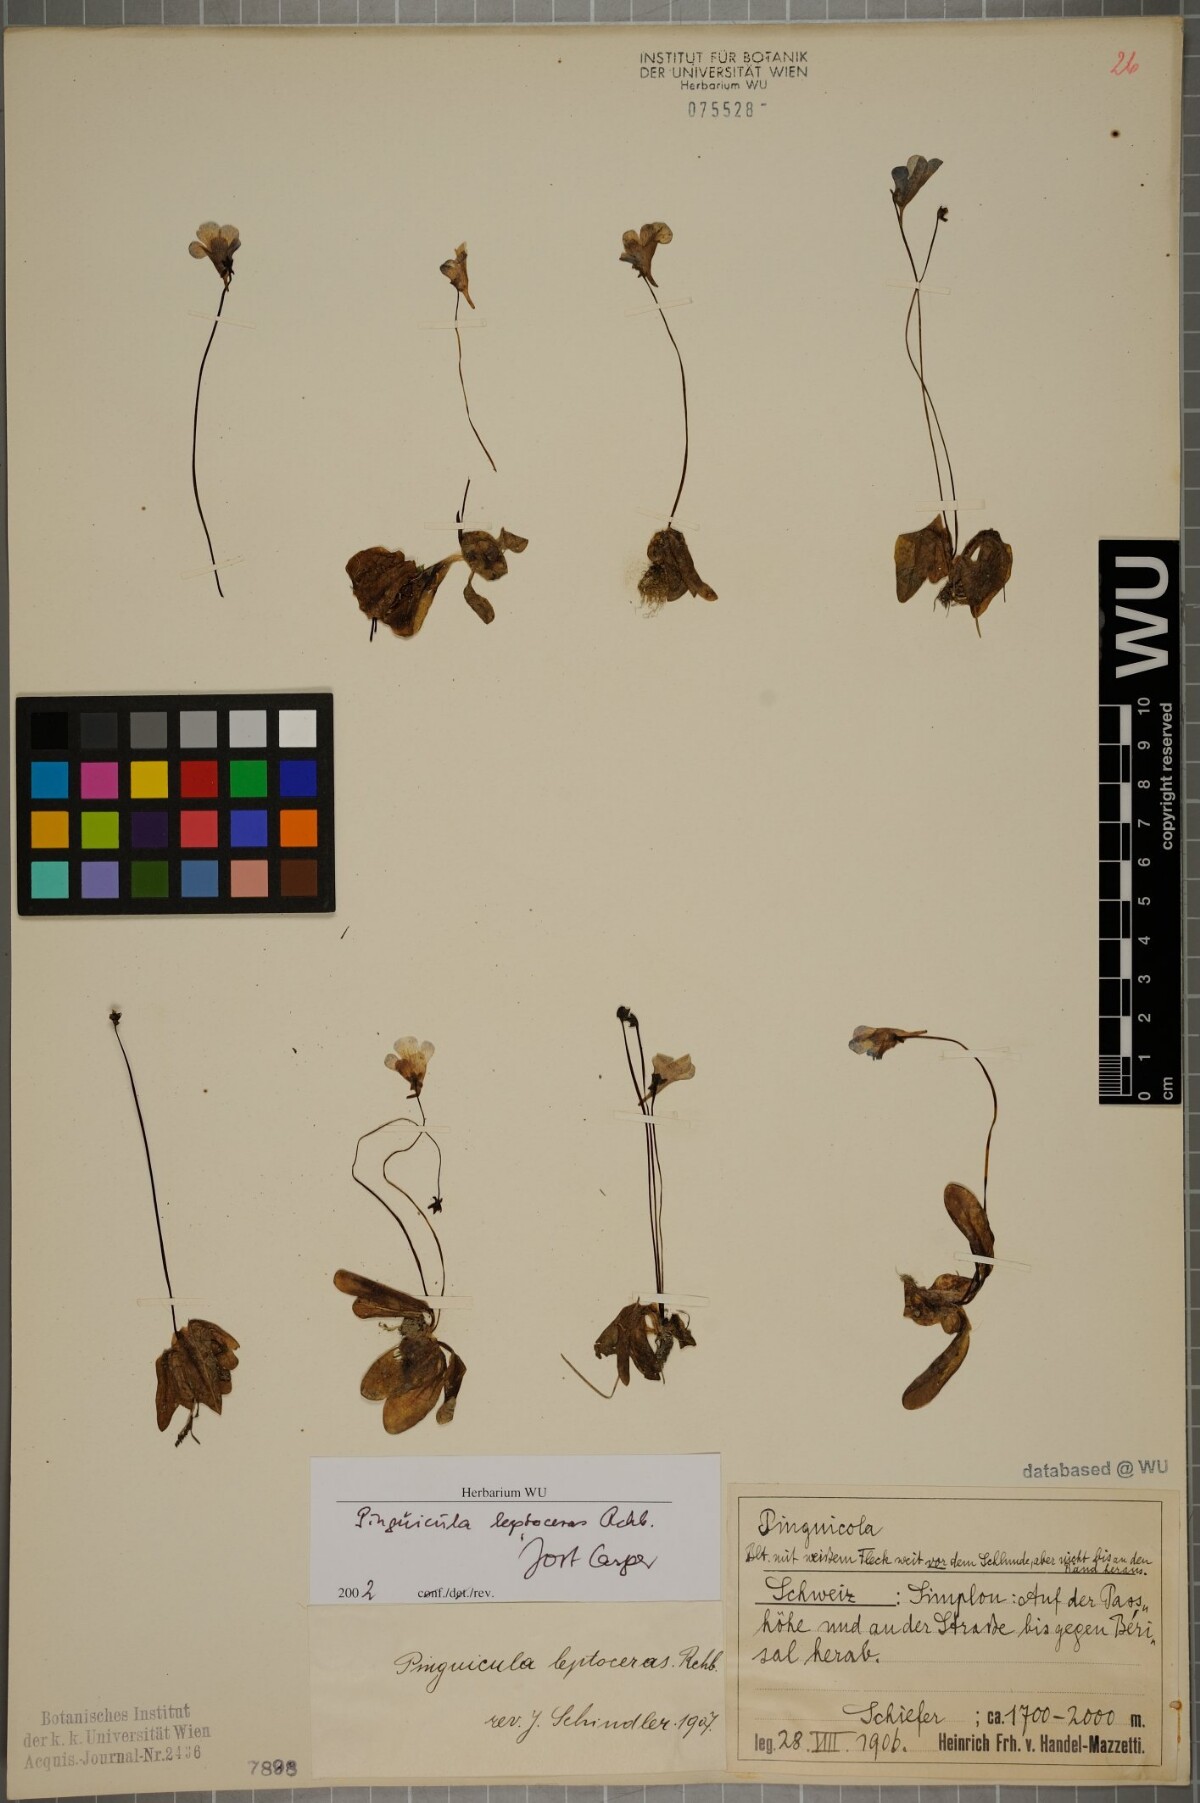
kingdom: Plantae
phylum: Tracheophyta
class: Magnoliopsida
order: Lamiales
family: Lentibulariaceae
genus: Pinguicula
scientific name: Pinguicula leptoceras
